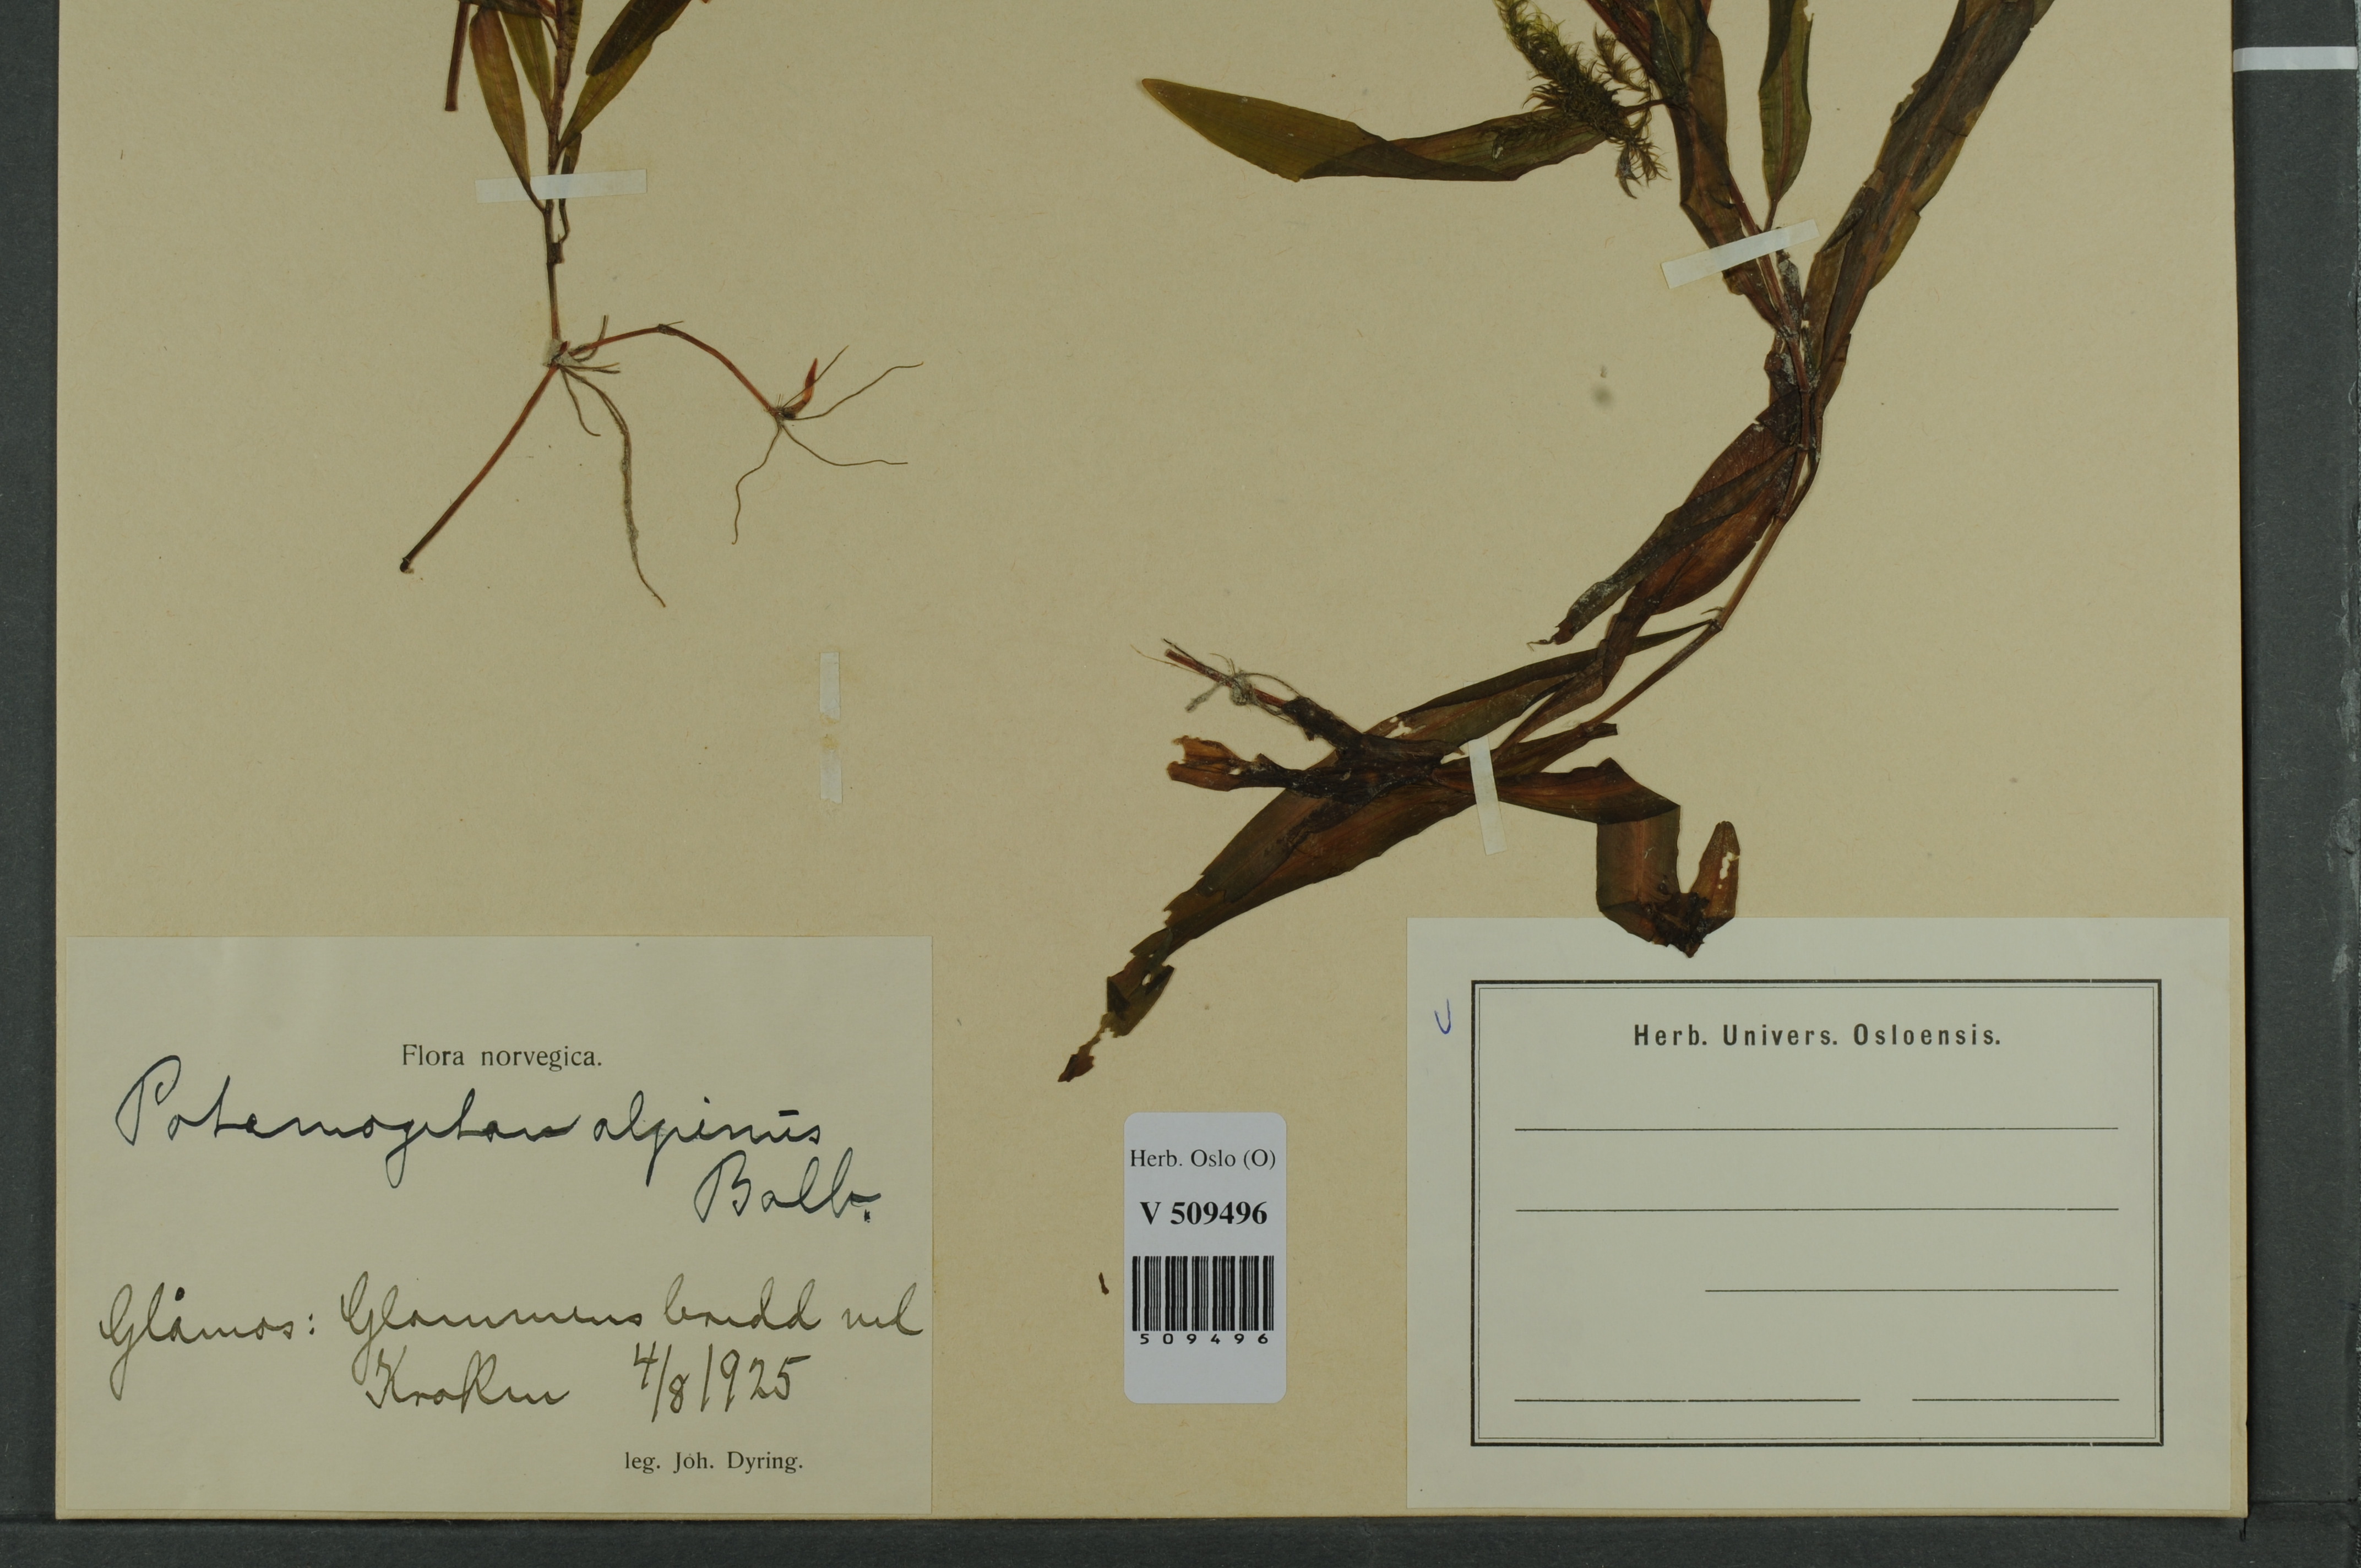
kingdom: Plantae
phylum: Tracheophyta
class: Liliopsida
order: Alismatales
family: Potamogetonaceae
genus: Potamogeton
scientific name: Potamogeton alpinus
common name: Red pondweed
